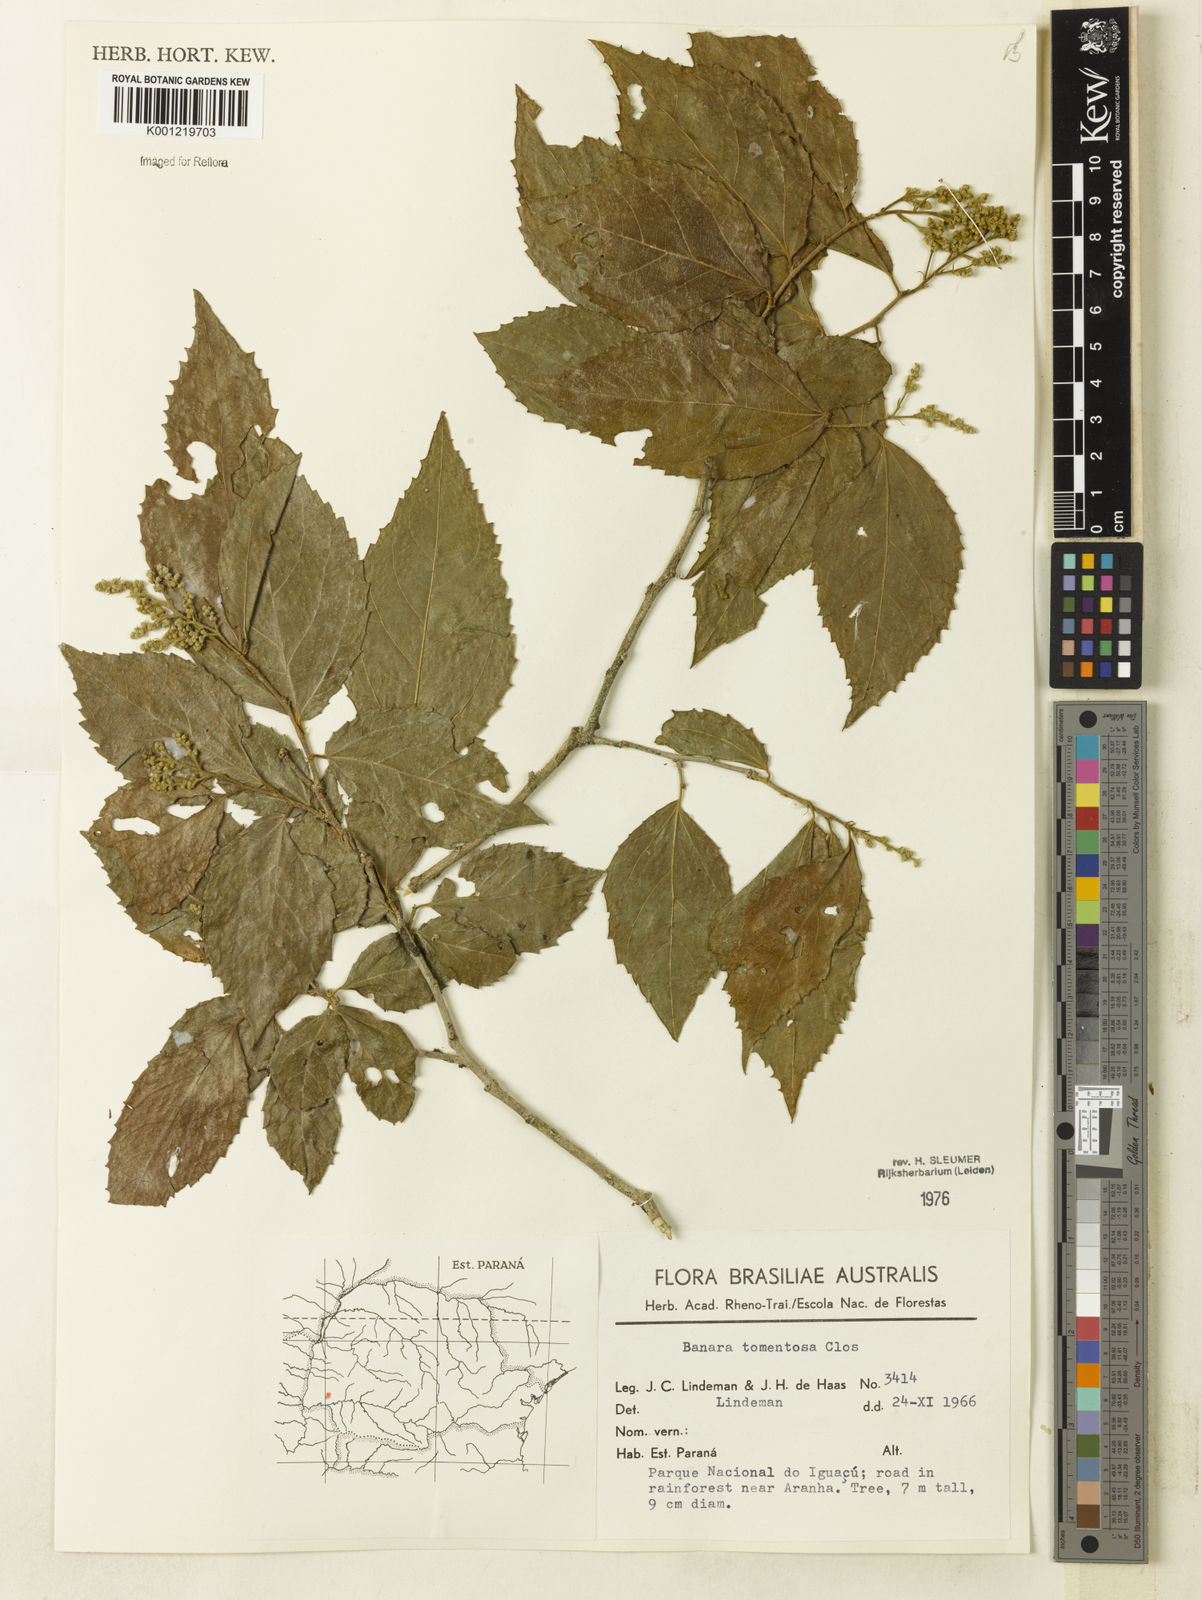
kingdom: Plantae
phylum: Tracheophyta
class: Magnoliopsida
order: Malpighiales
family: Salicaceae
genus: Banara
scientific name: Banara tomentosa
